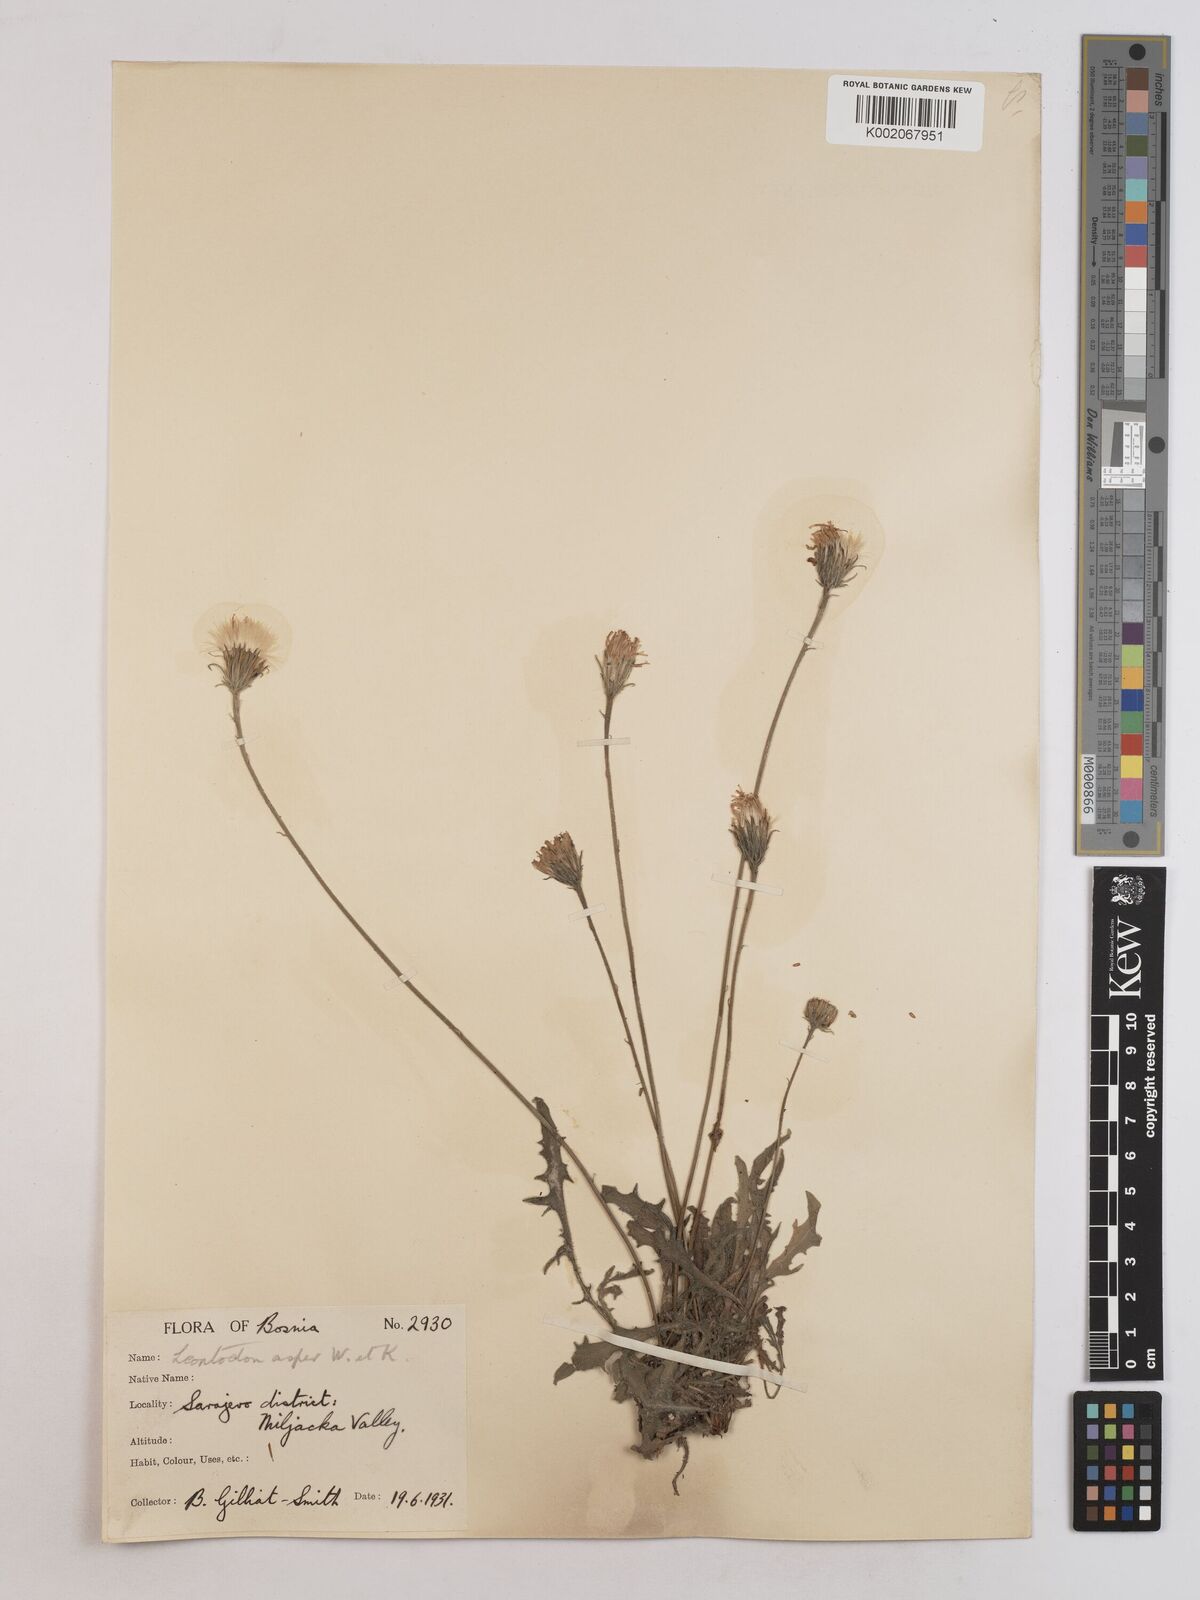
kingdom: Plantae
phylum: Tracheophyta
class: Magnoliopsida
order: Asterales
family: Asteraceae
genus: Leontodon
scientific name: Leontodon crispus
